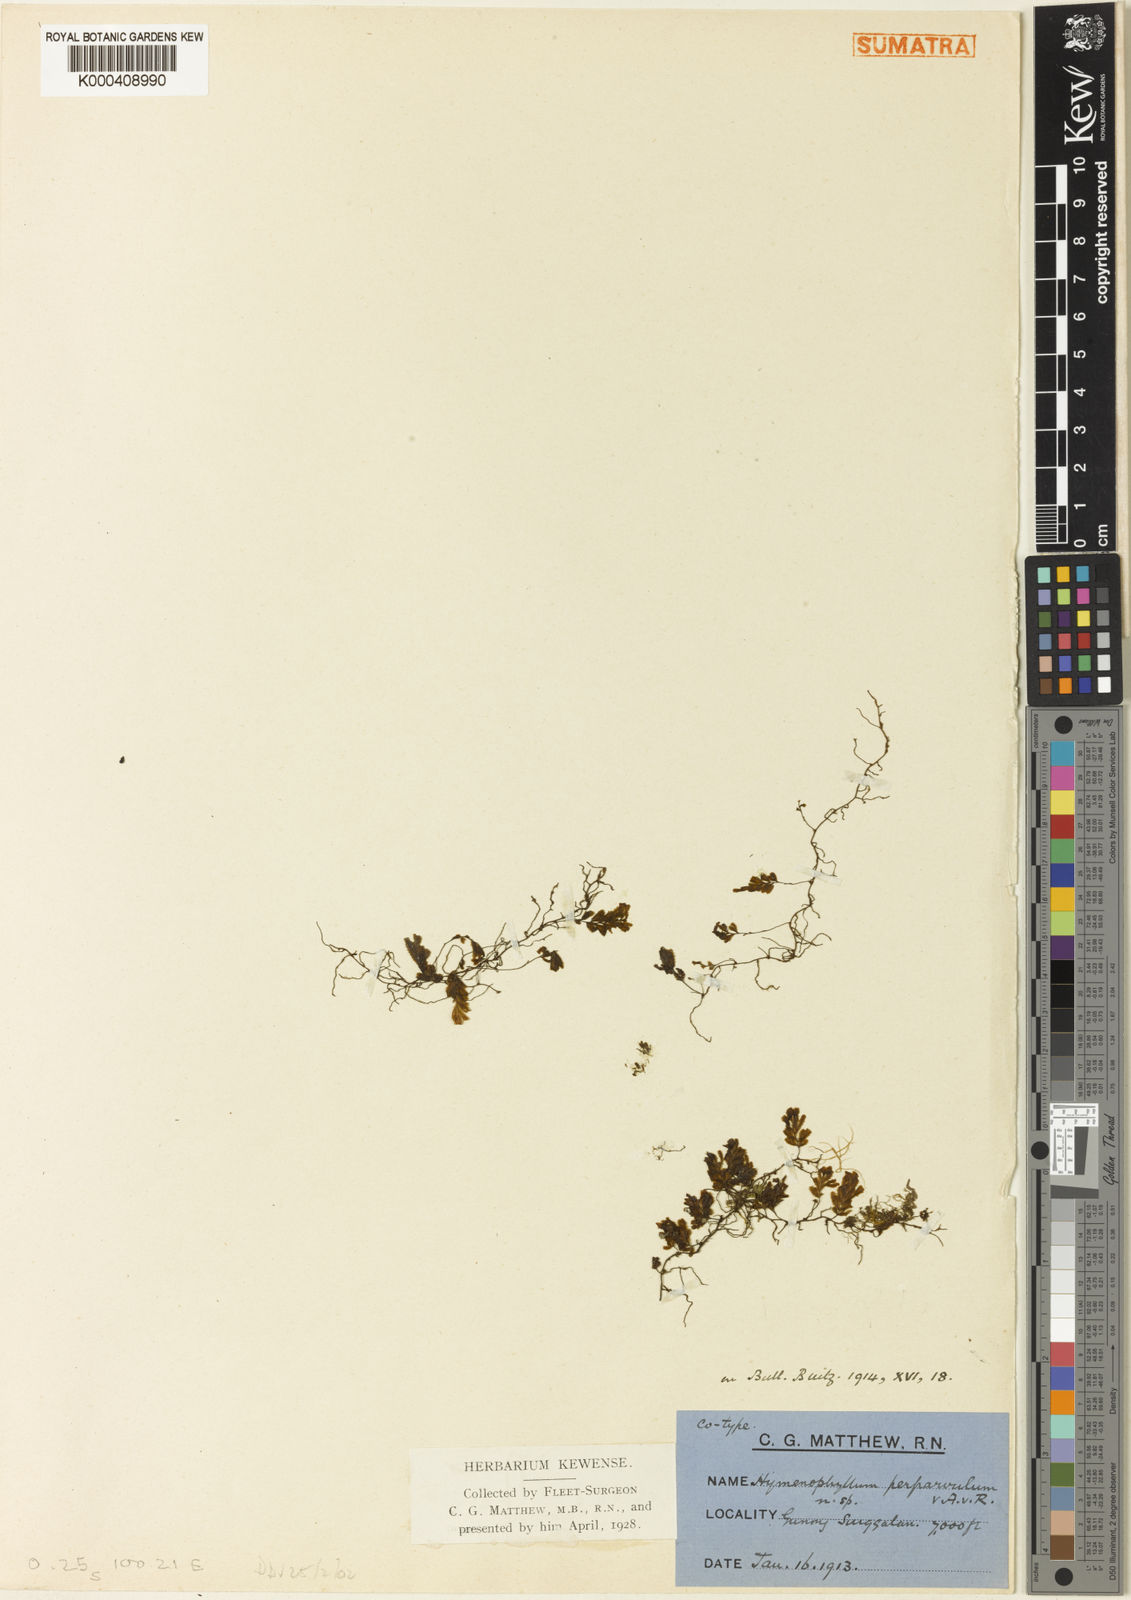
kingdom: Plantae
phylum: Tracheophyta
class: Polypodiopsida
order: Hymenophyllales
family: Hymenophyllaceae
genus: Hymenophyllum
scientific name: Hymenophyllum perparvulum
